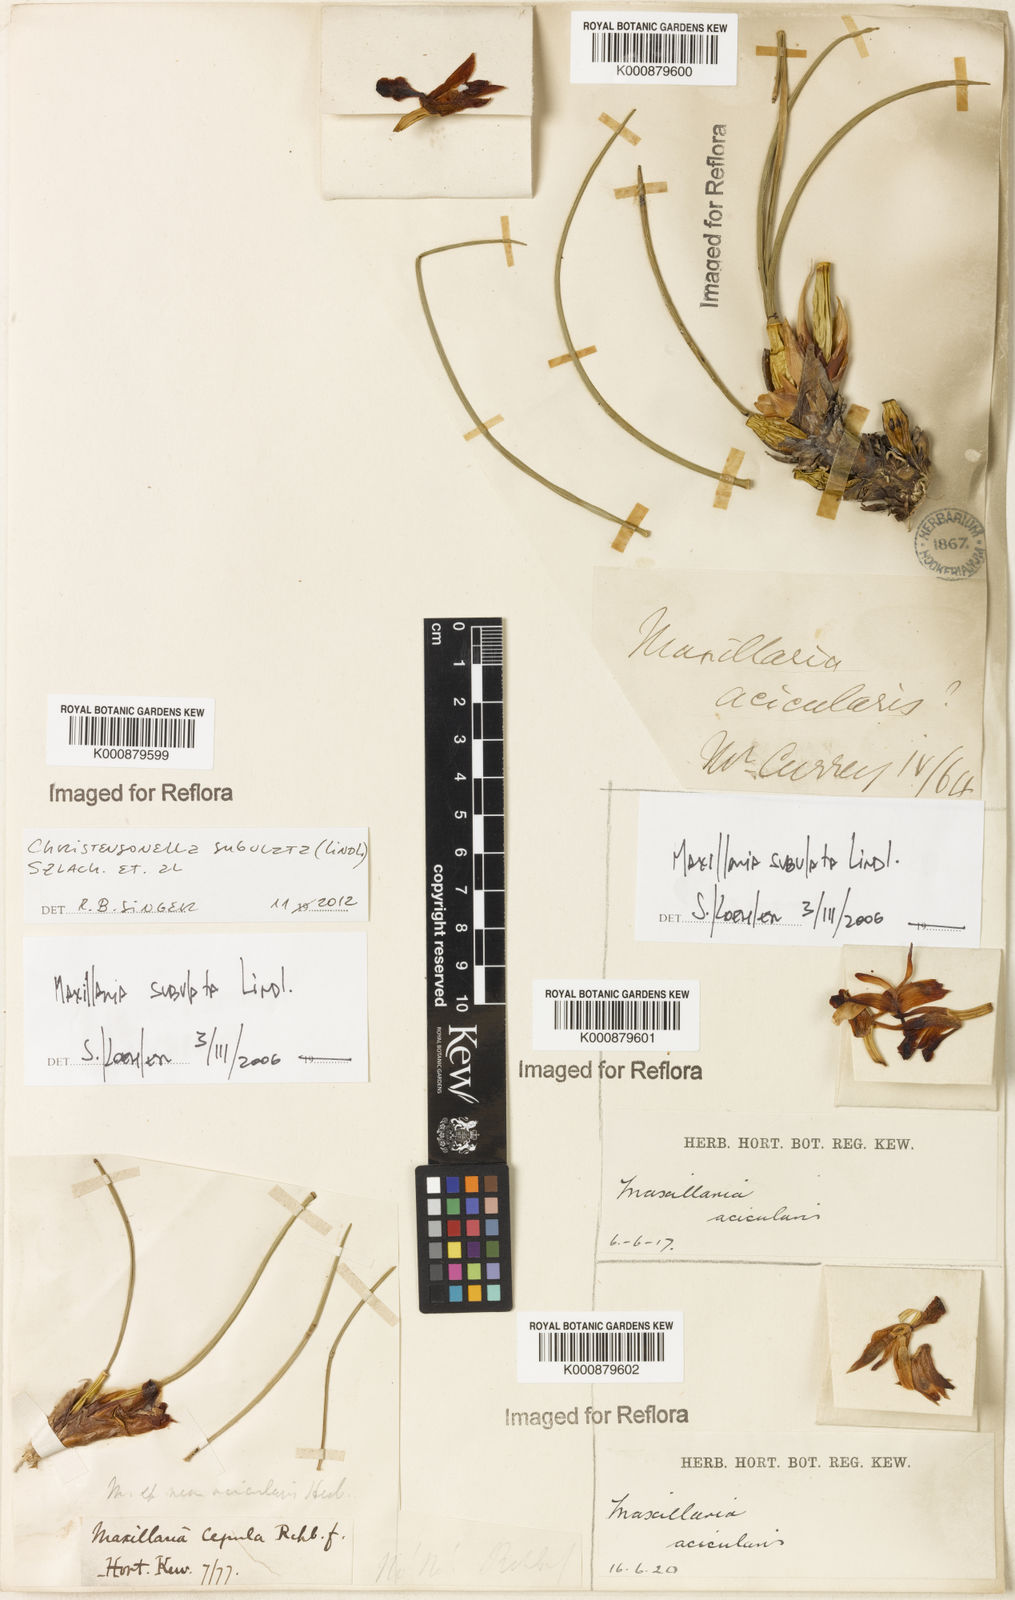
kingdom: Plantae
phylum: Tracheophyta
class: Liliopsida
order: Asparagales
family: Orchidaceae
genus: Maxillaria
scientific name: Maxillaria subulata
